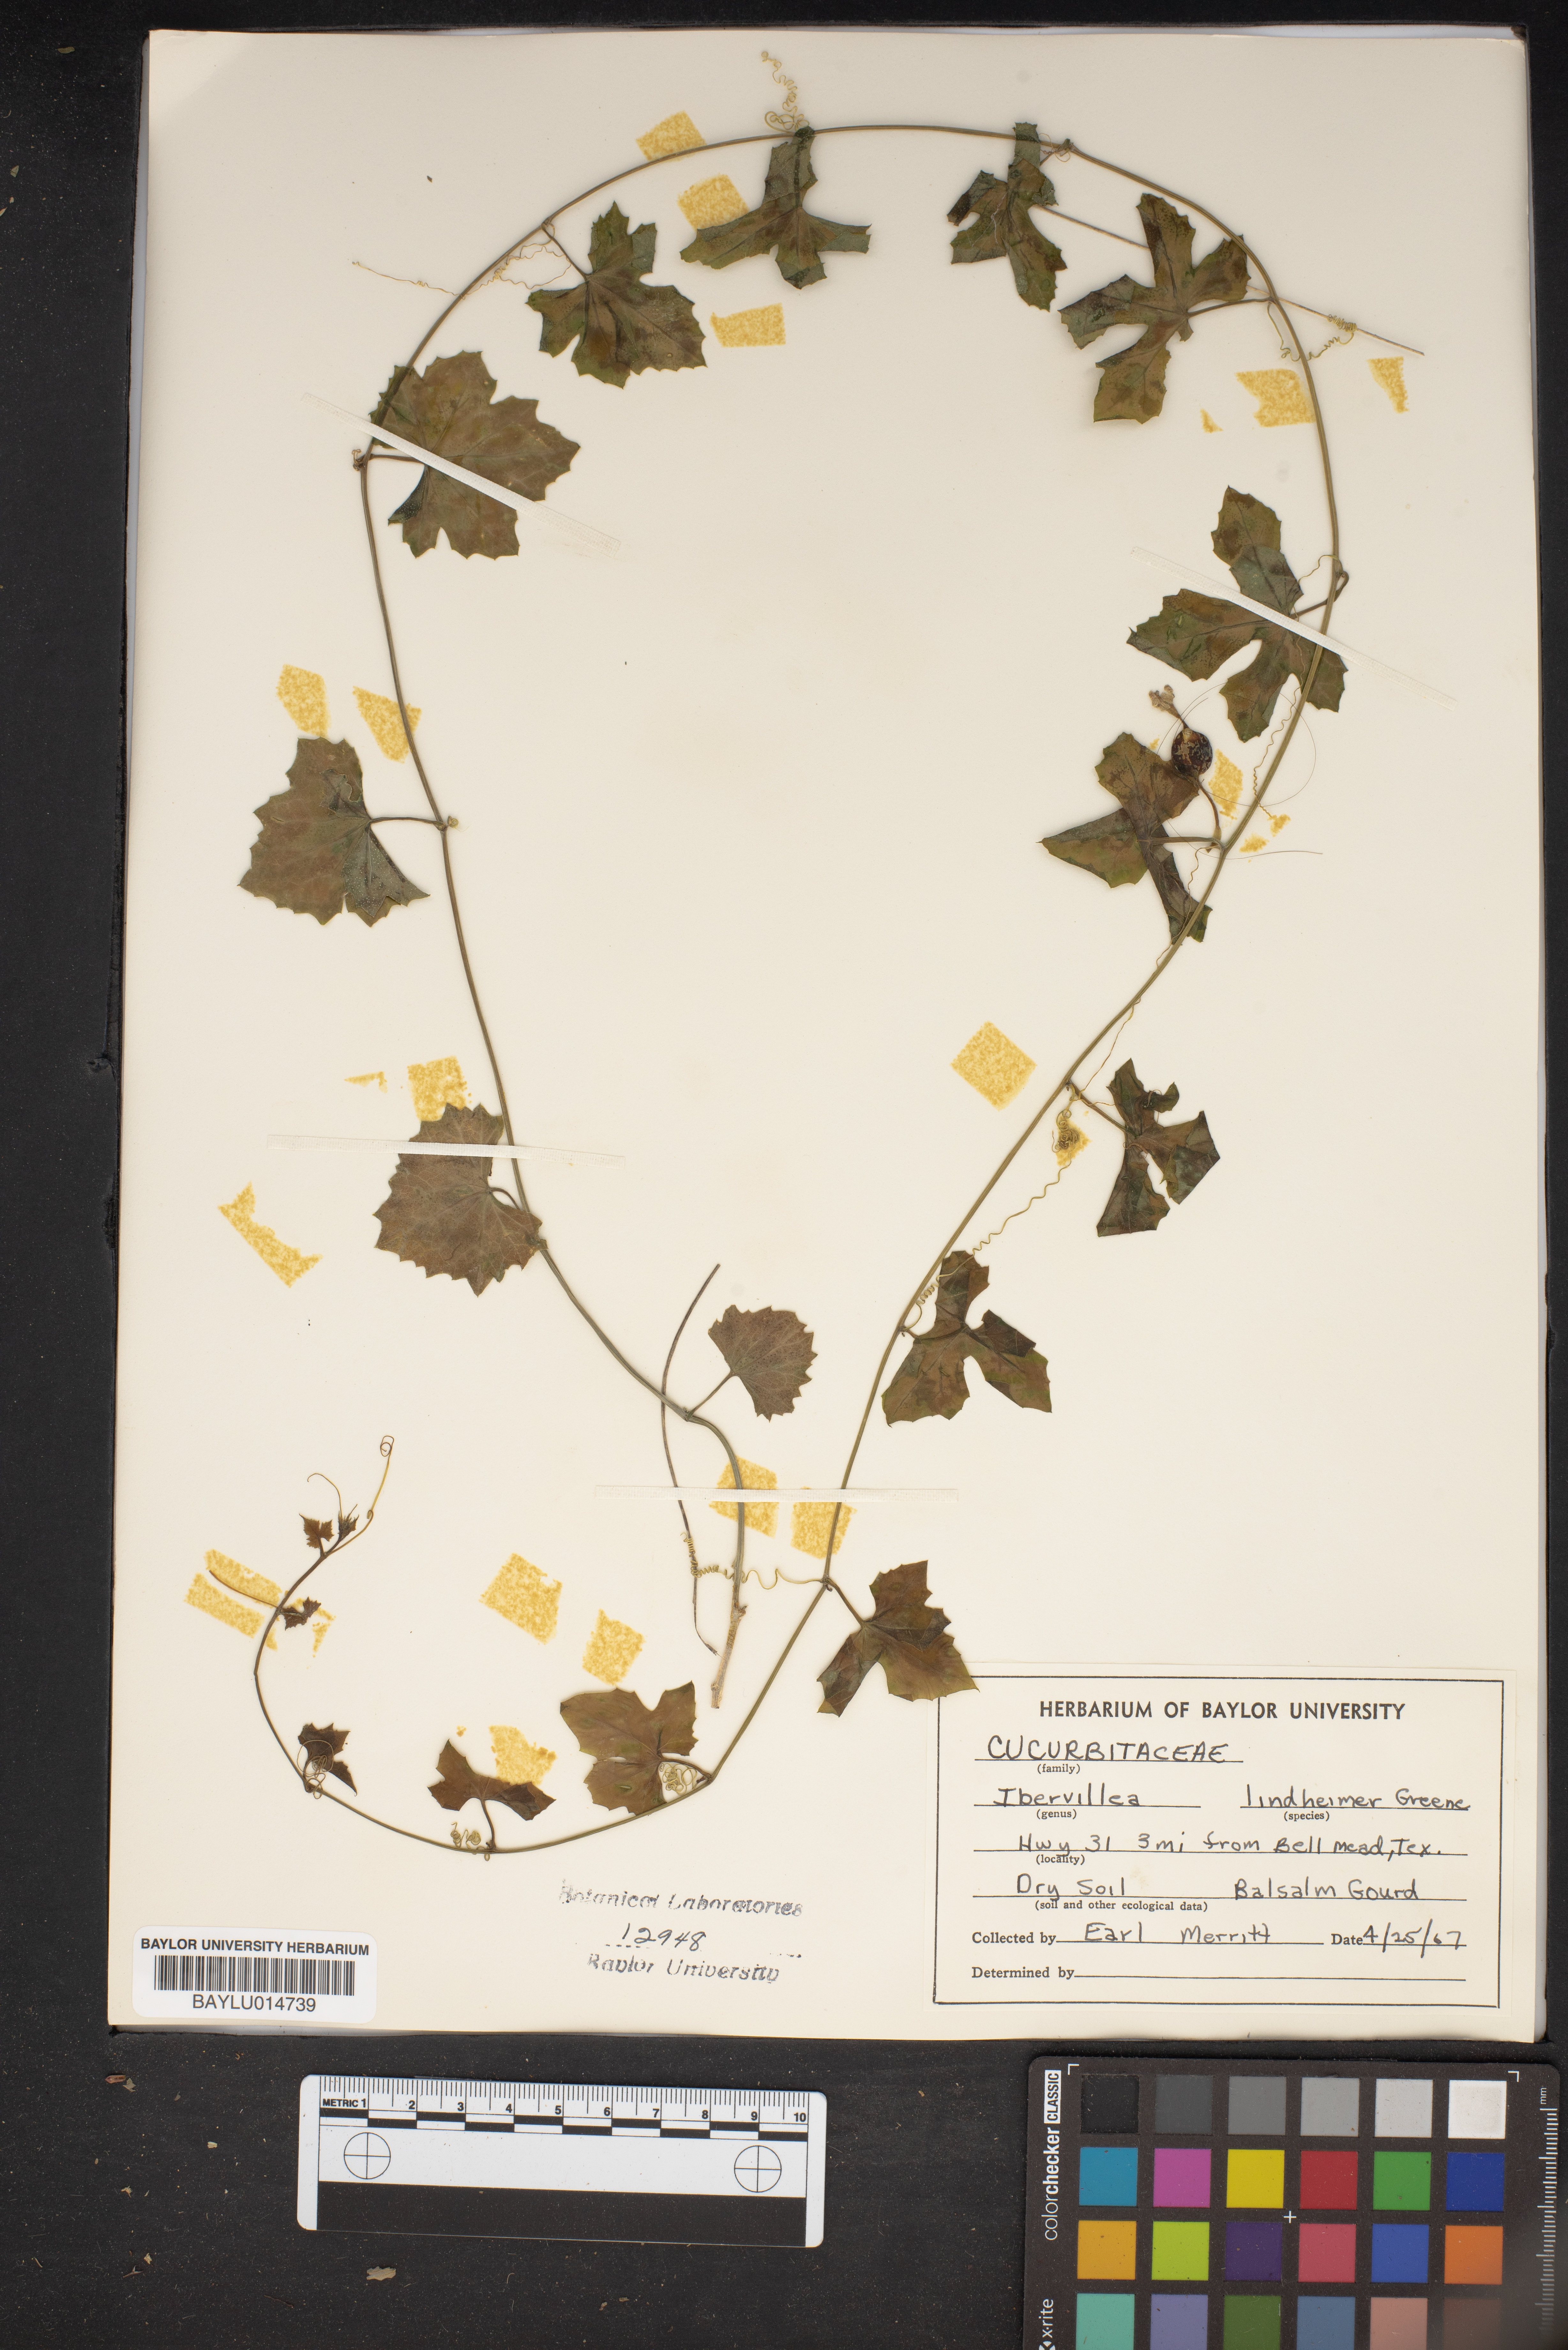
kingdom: Plantae
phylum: Tracheophyta
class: Magnoliopsida
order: Cucurbitales
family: Cucurbitaceae
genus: Ibervillea
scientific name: Ibervillea lindheimeri
